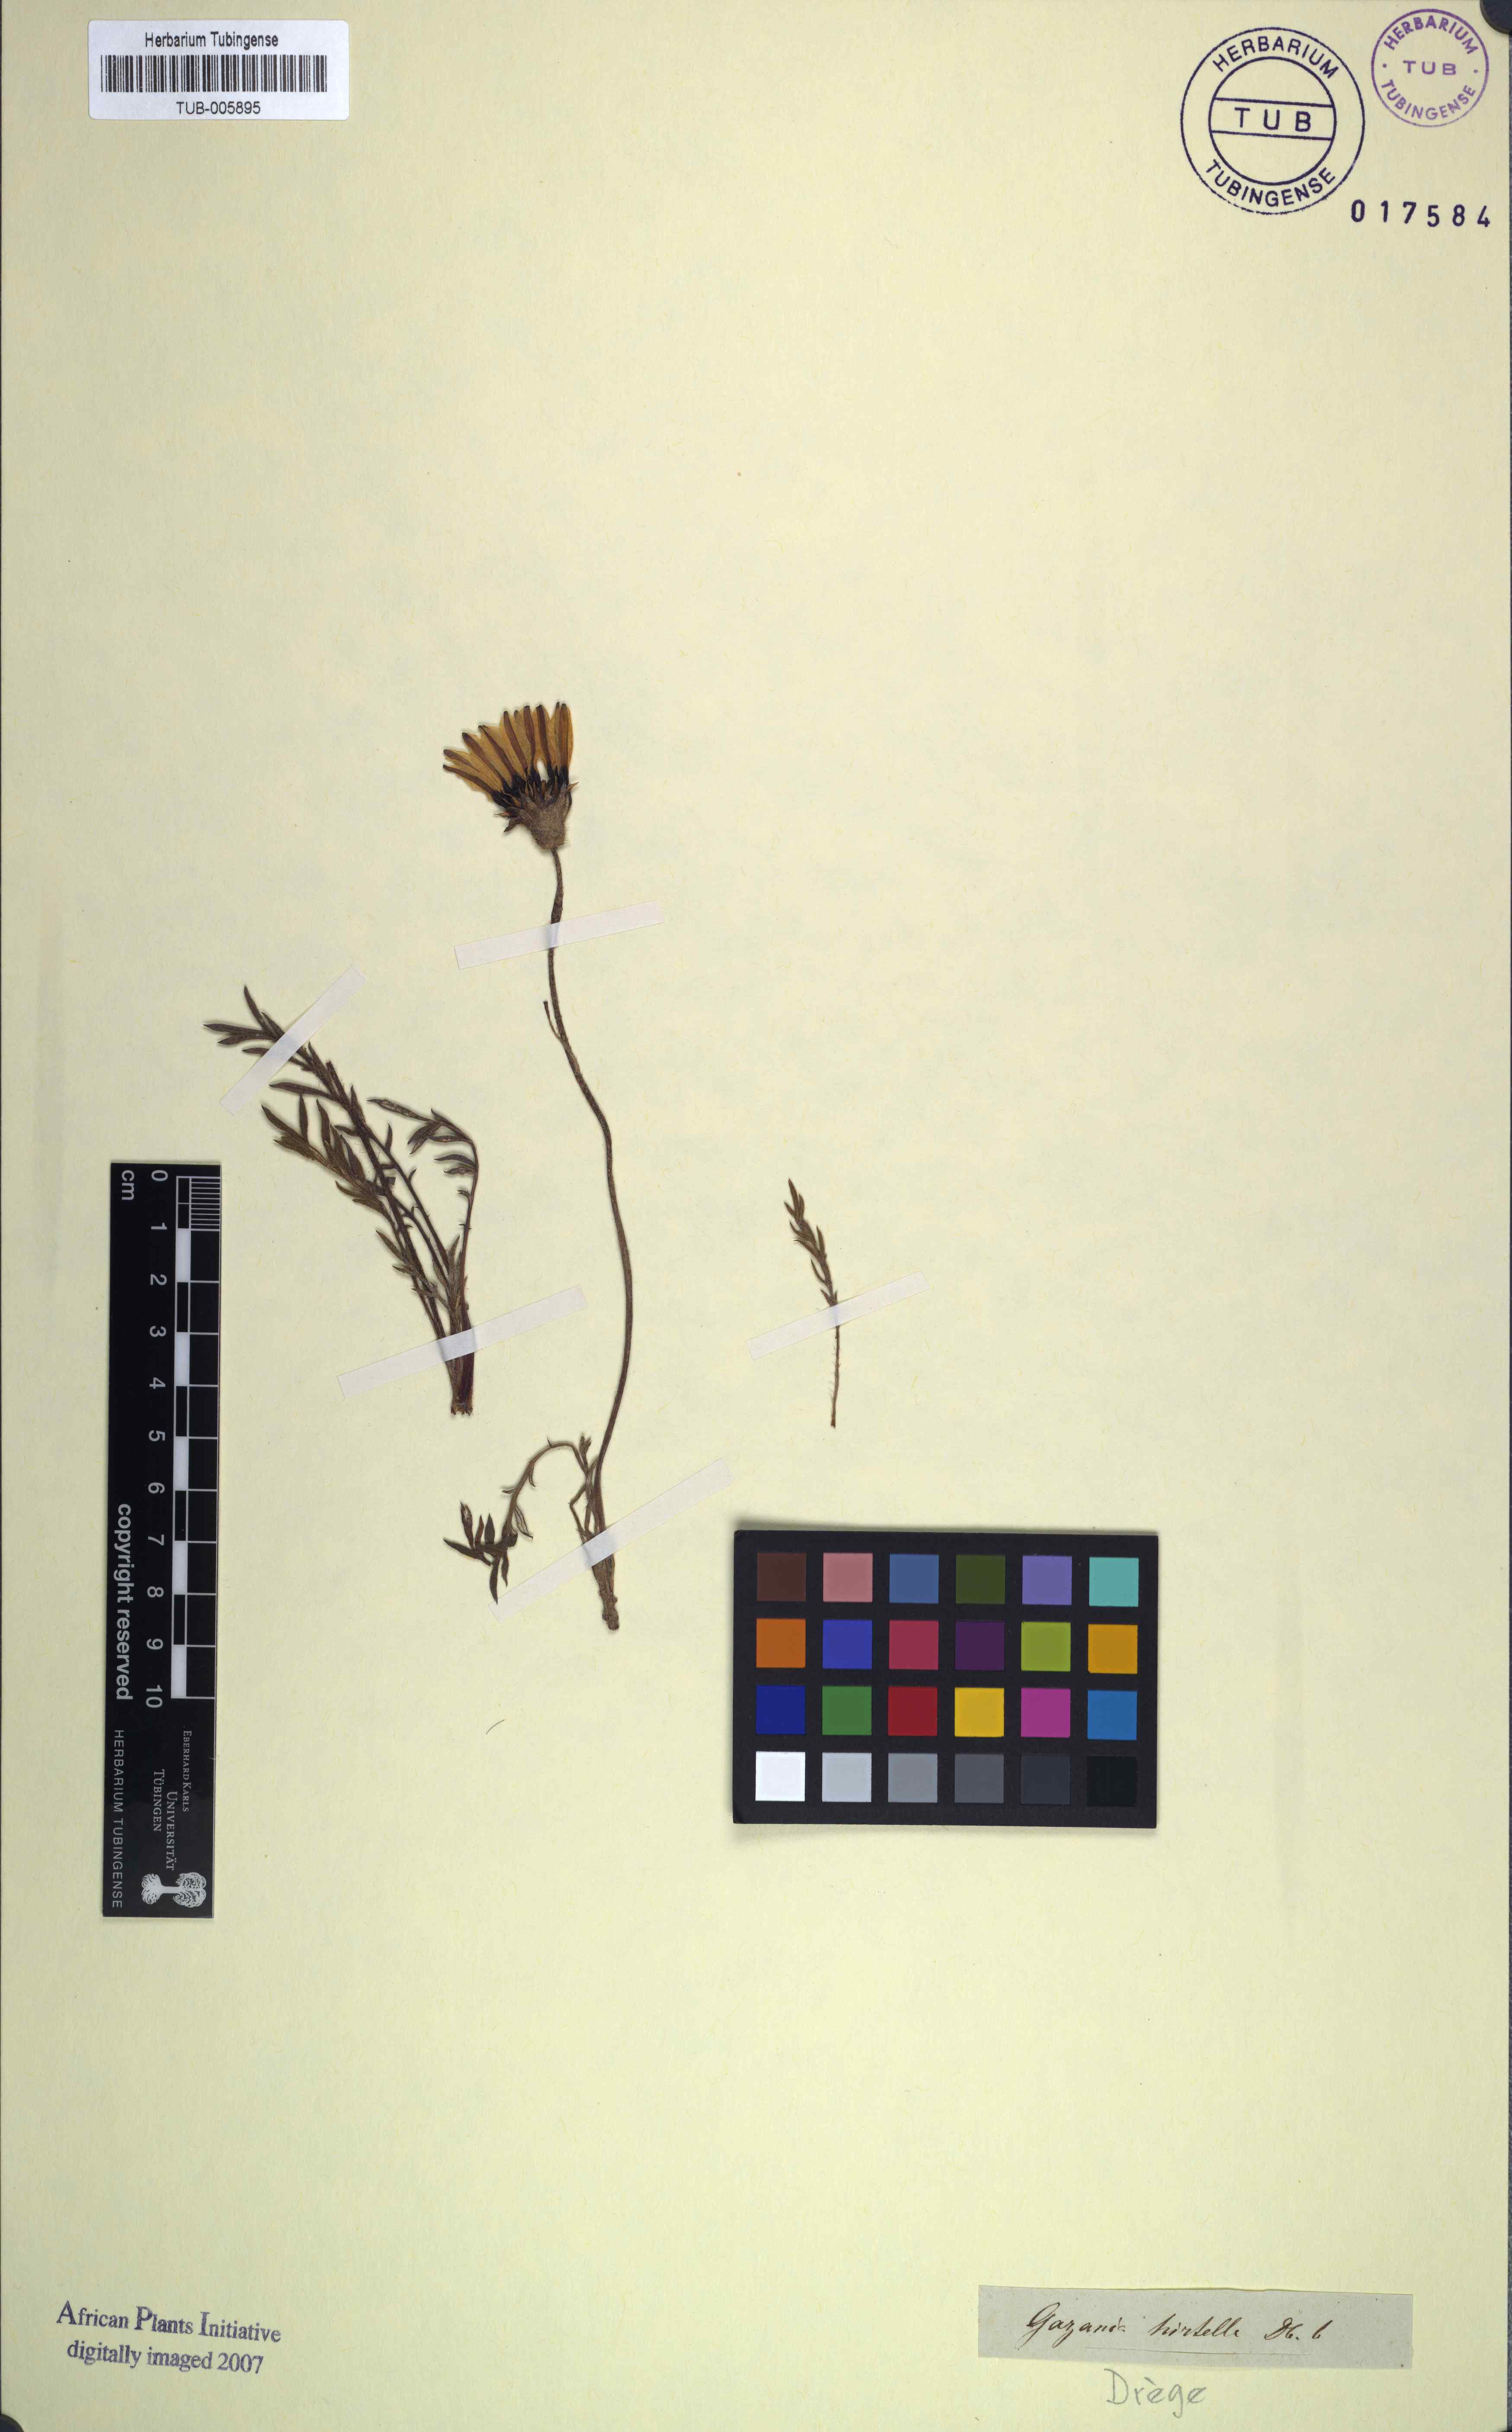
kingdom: Plantae
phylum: Tracheophyta
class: Magnoliopsida
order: Asterales
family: Asteraceae
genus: Gazania
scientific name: Gazania rigida
